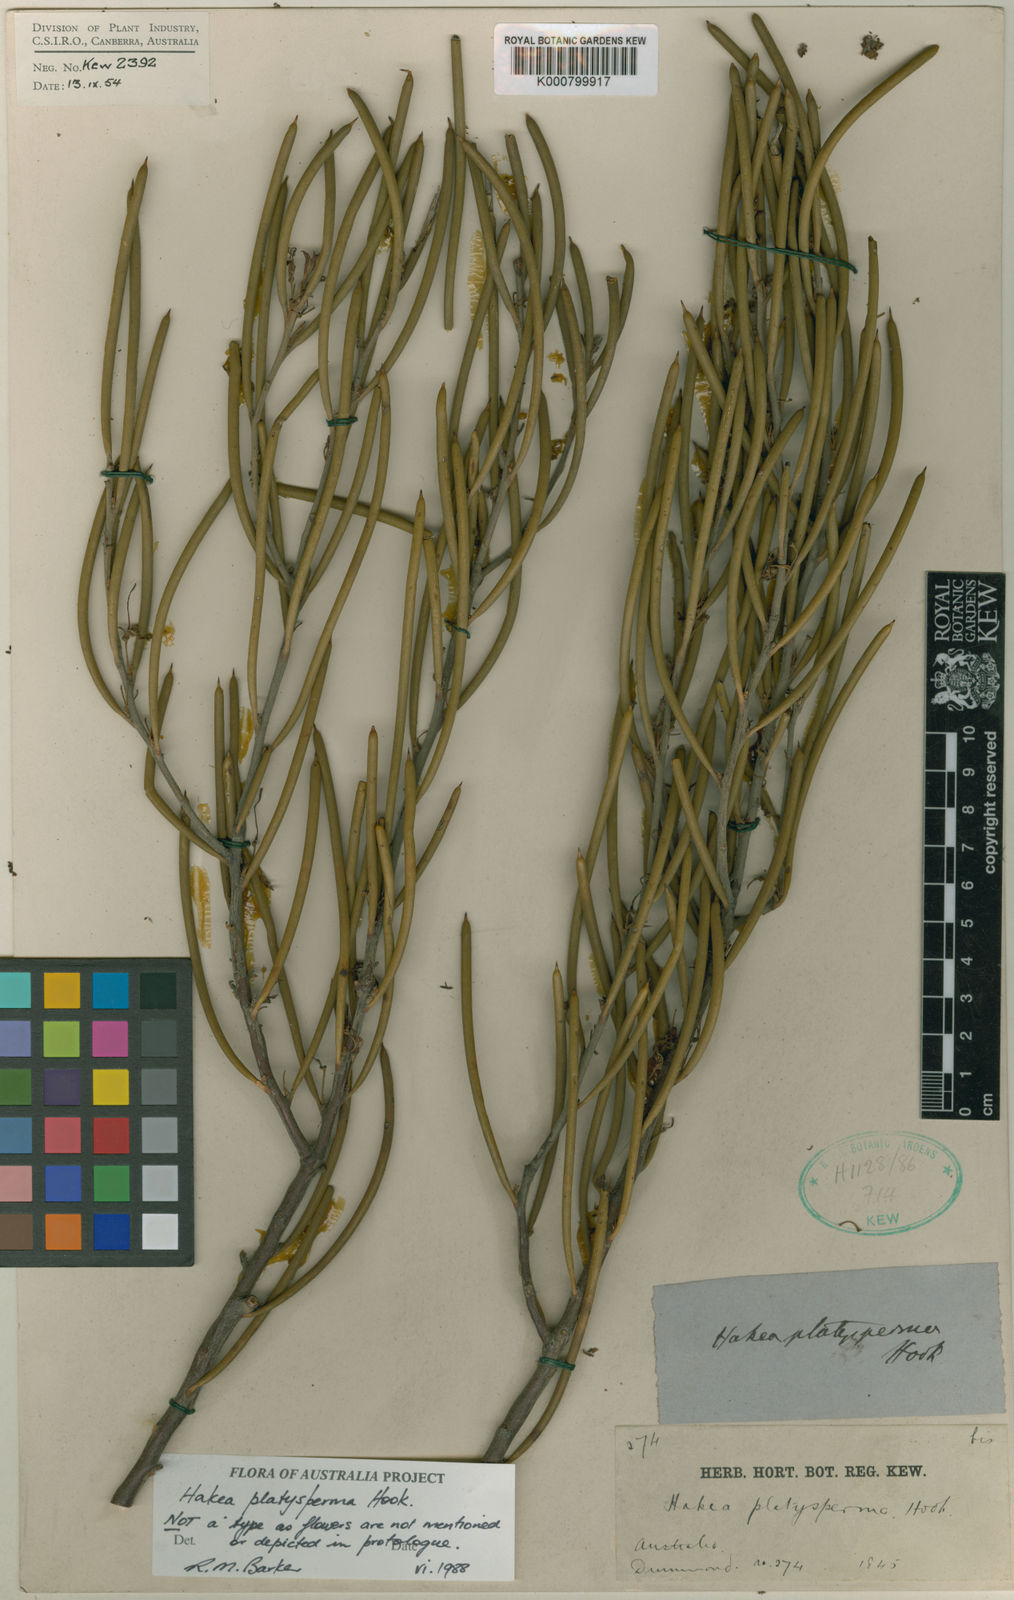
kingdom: Plantae
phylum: Tracheophyta
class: Magnoliopsida
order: Proteales
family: Proteaceae
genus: Hakea
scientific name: Hakea platysperma
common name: Cricket-ball hakea
